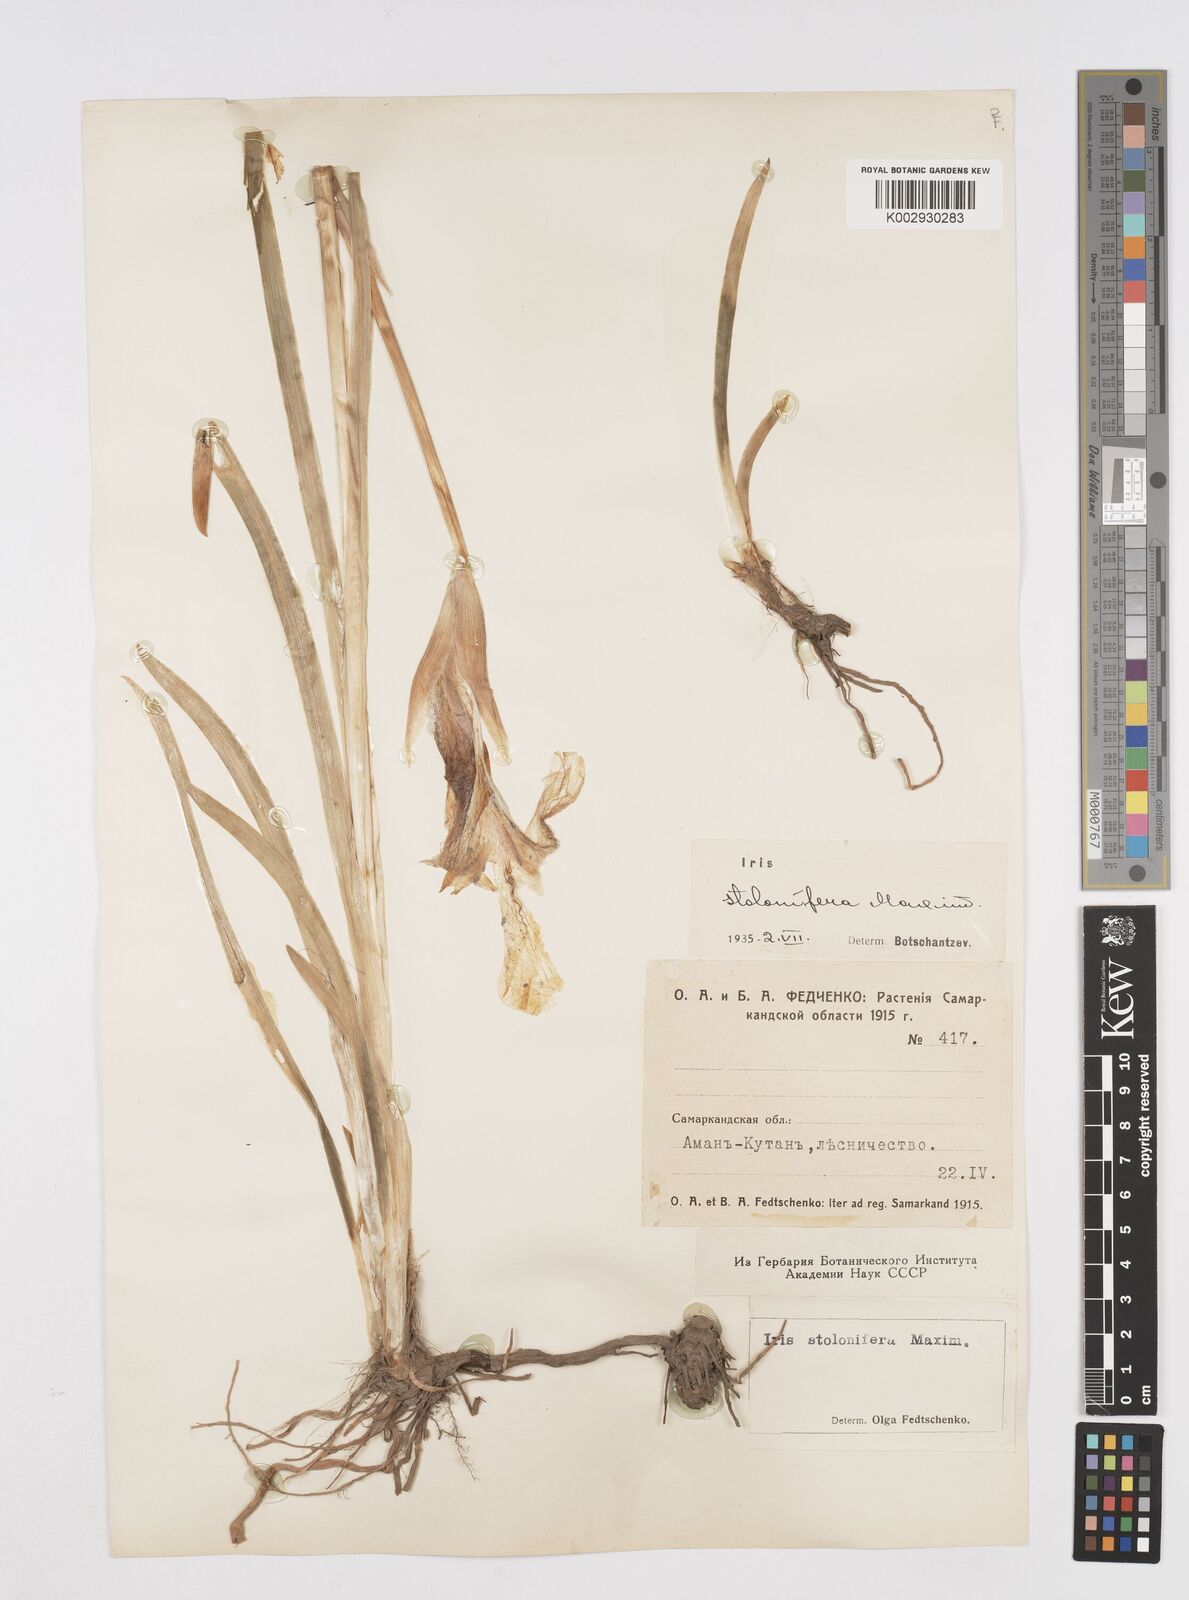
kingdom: Plantae
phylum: Tracheophyta
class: Liliopsida
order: Asparagales
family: Iridaceae
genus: Iris
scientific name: Iris stolonifera
